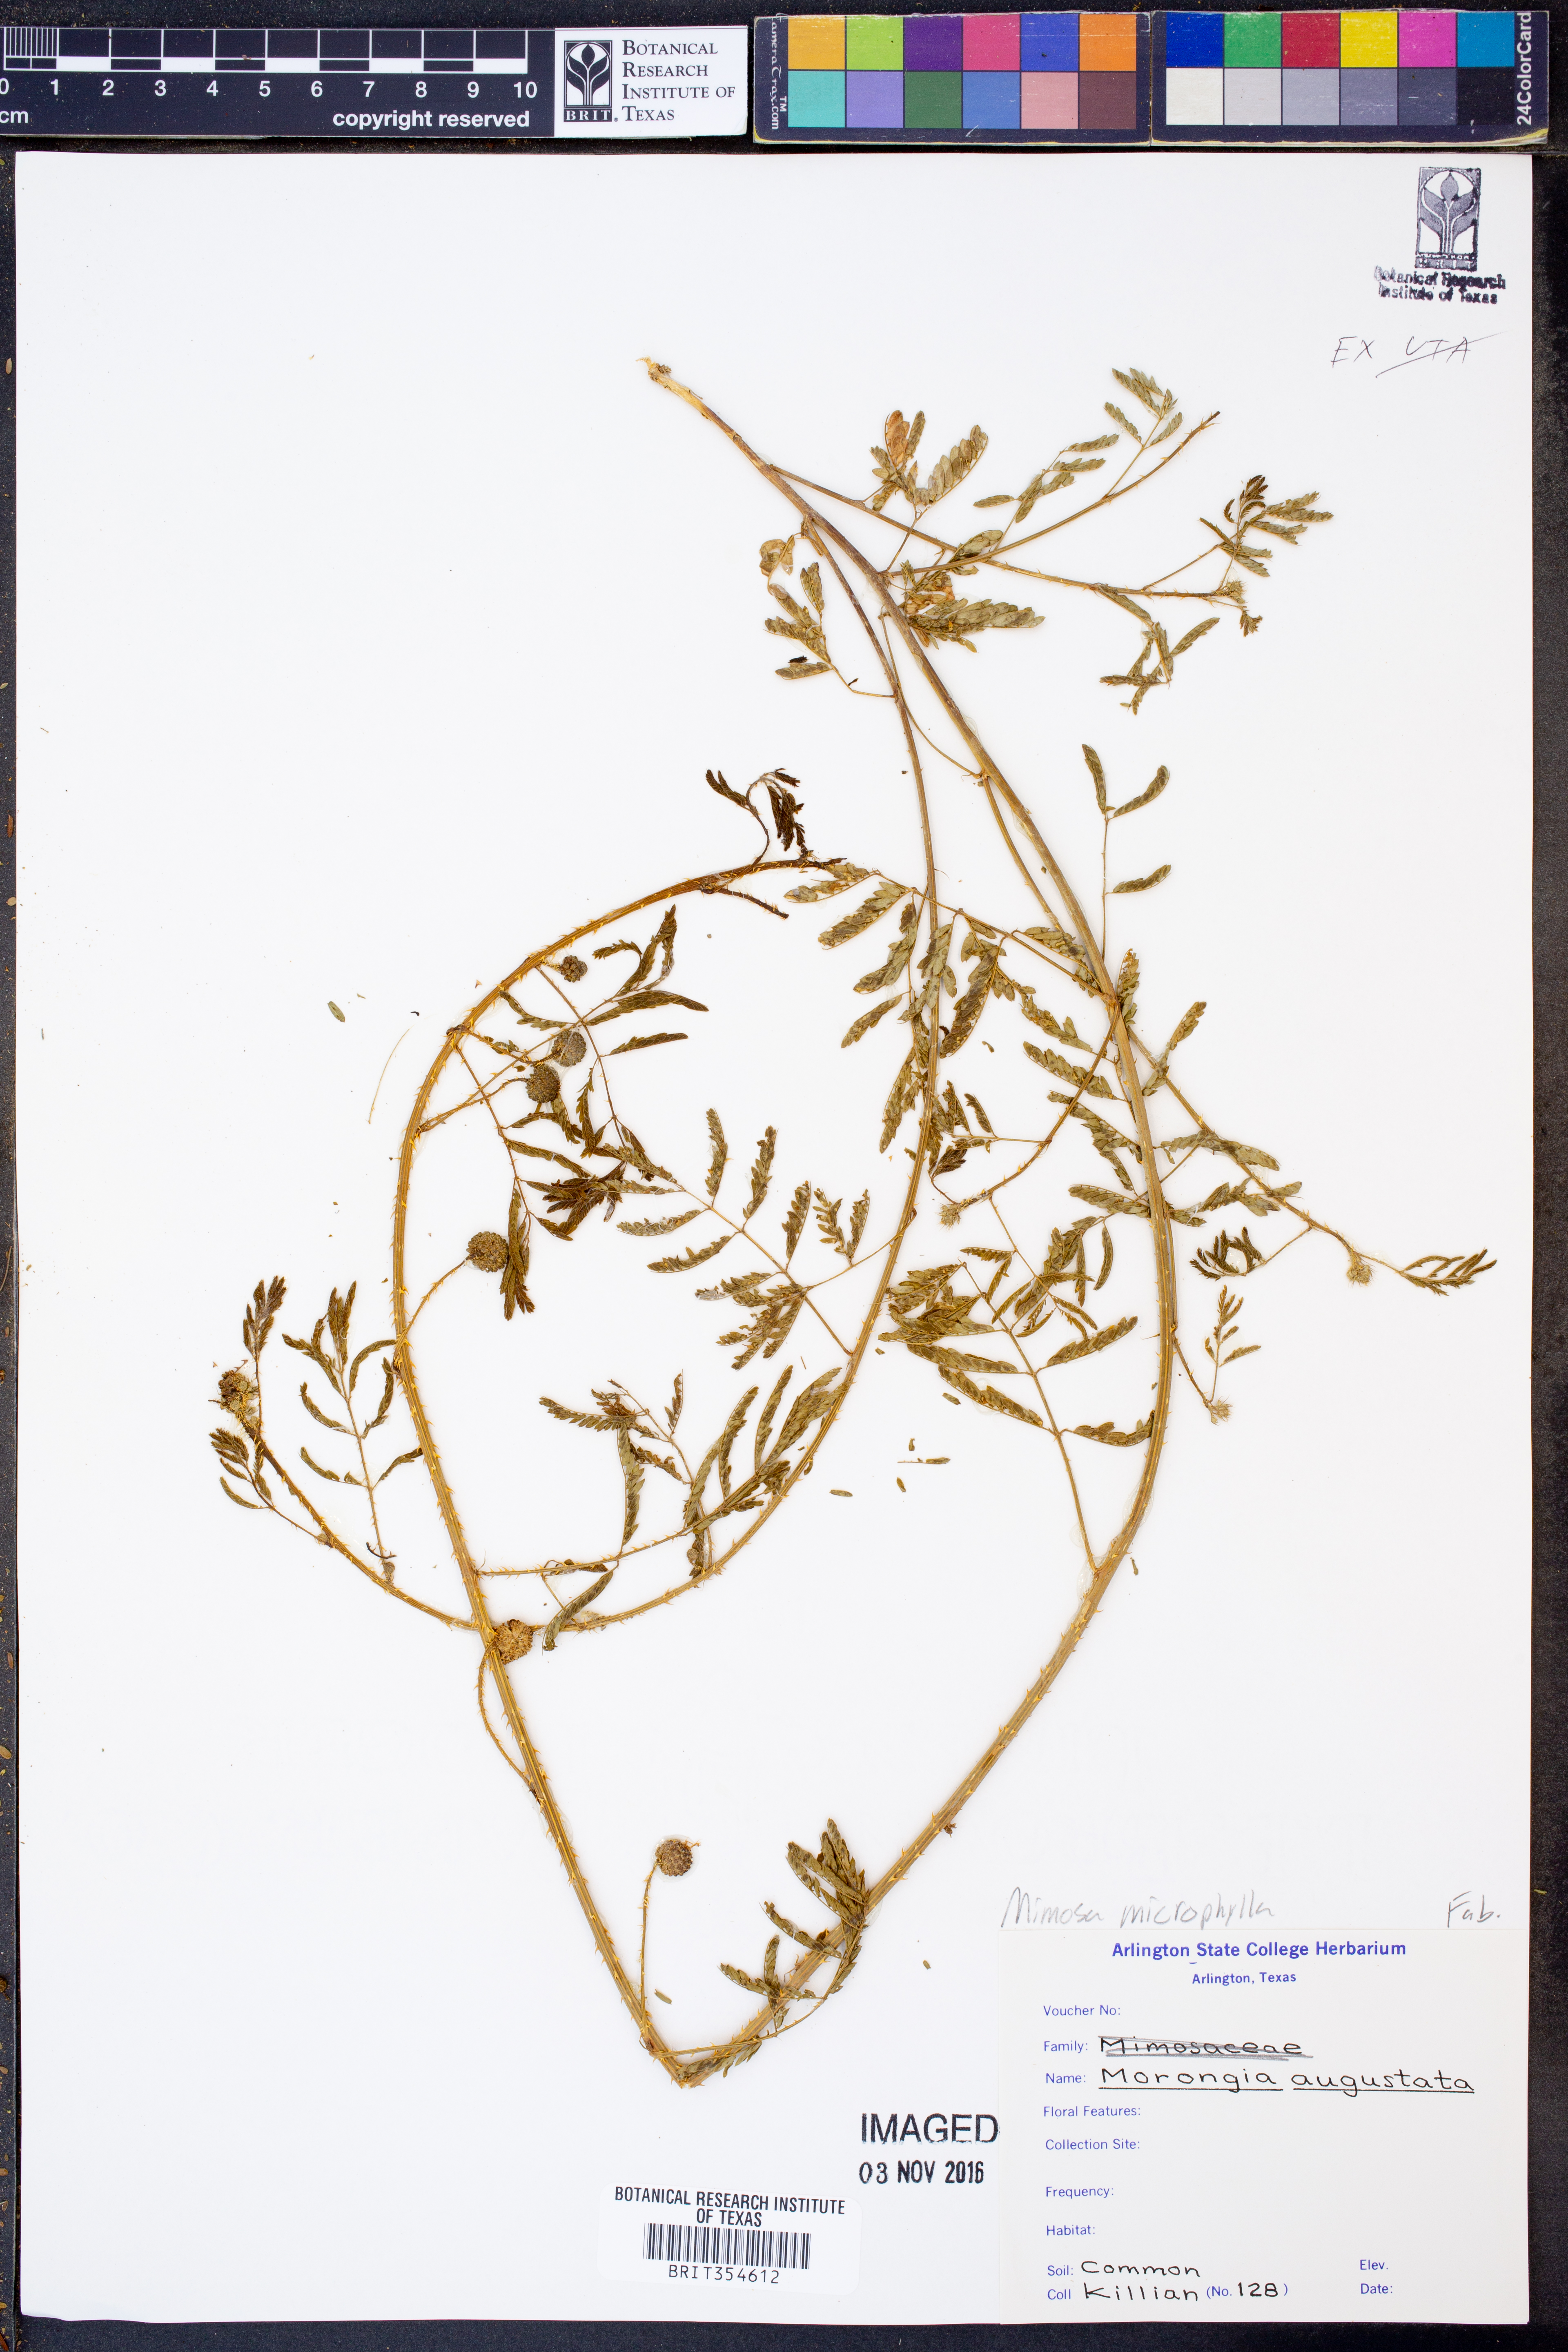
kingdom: Plantae
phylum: Tracheophyta
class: Magnoliopsida
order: Fabales
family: Fabaceae
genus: Mimosa
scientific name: Mimosa quadrivalvis
